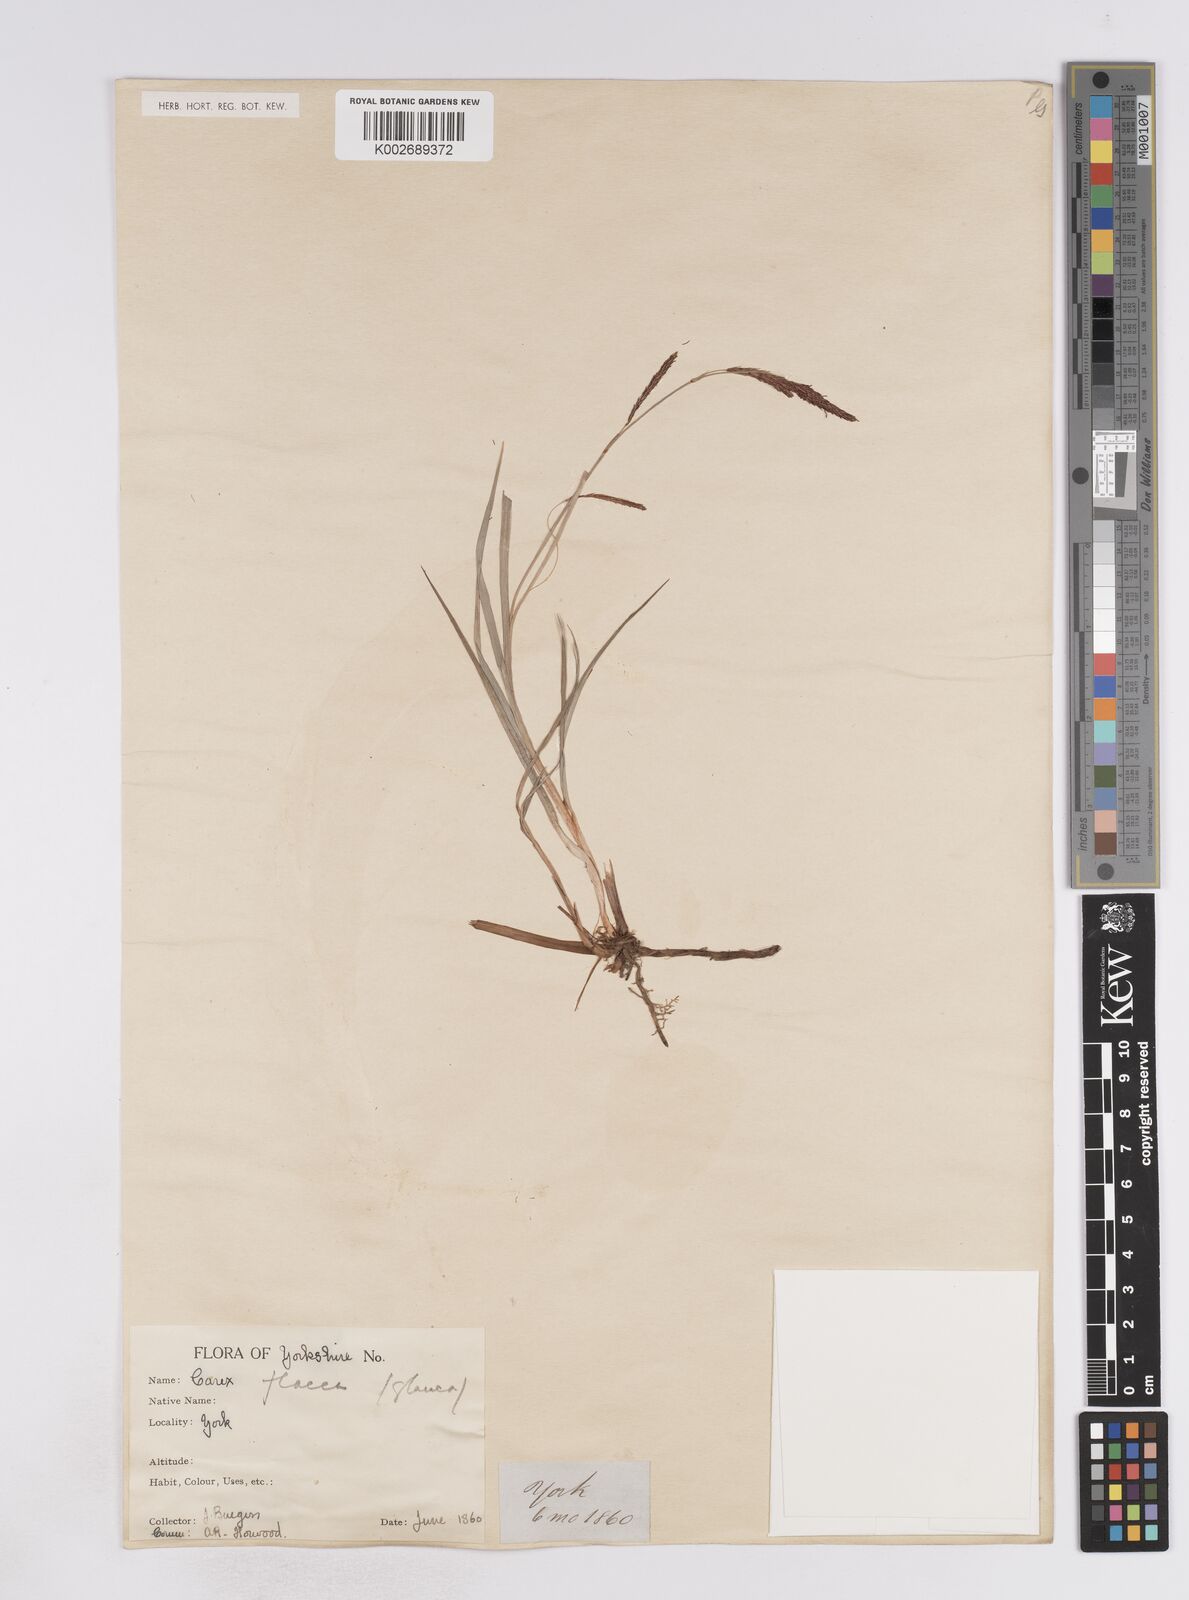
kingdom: Plantae
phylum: Tracheophyta
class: Liliopsida
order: Poales
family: Cyperaceae
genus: Carex
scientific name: Carex flacca
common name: Glaucous sedge
